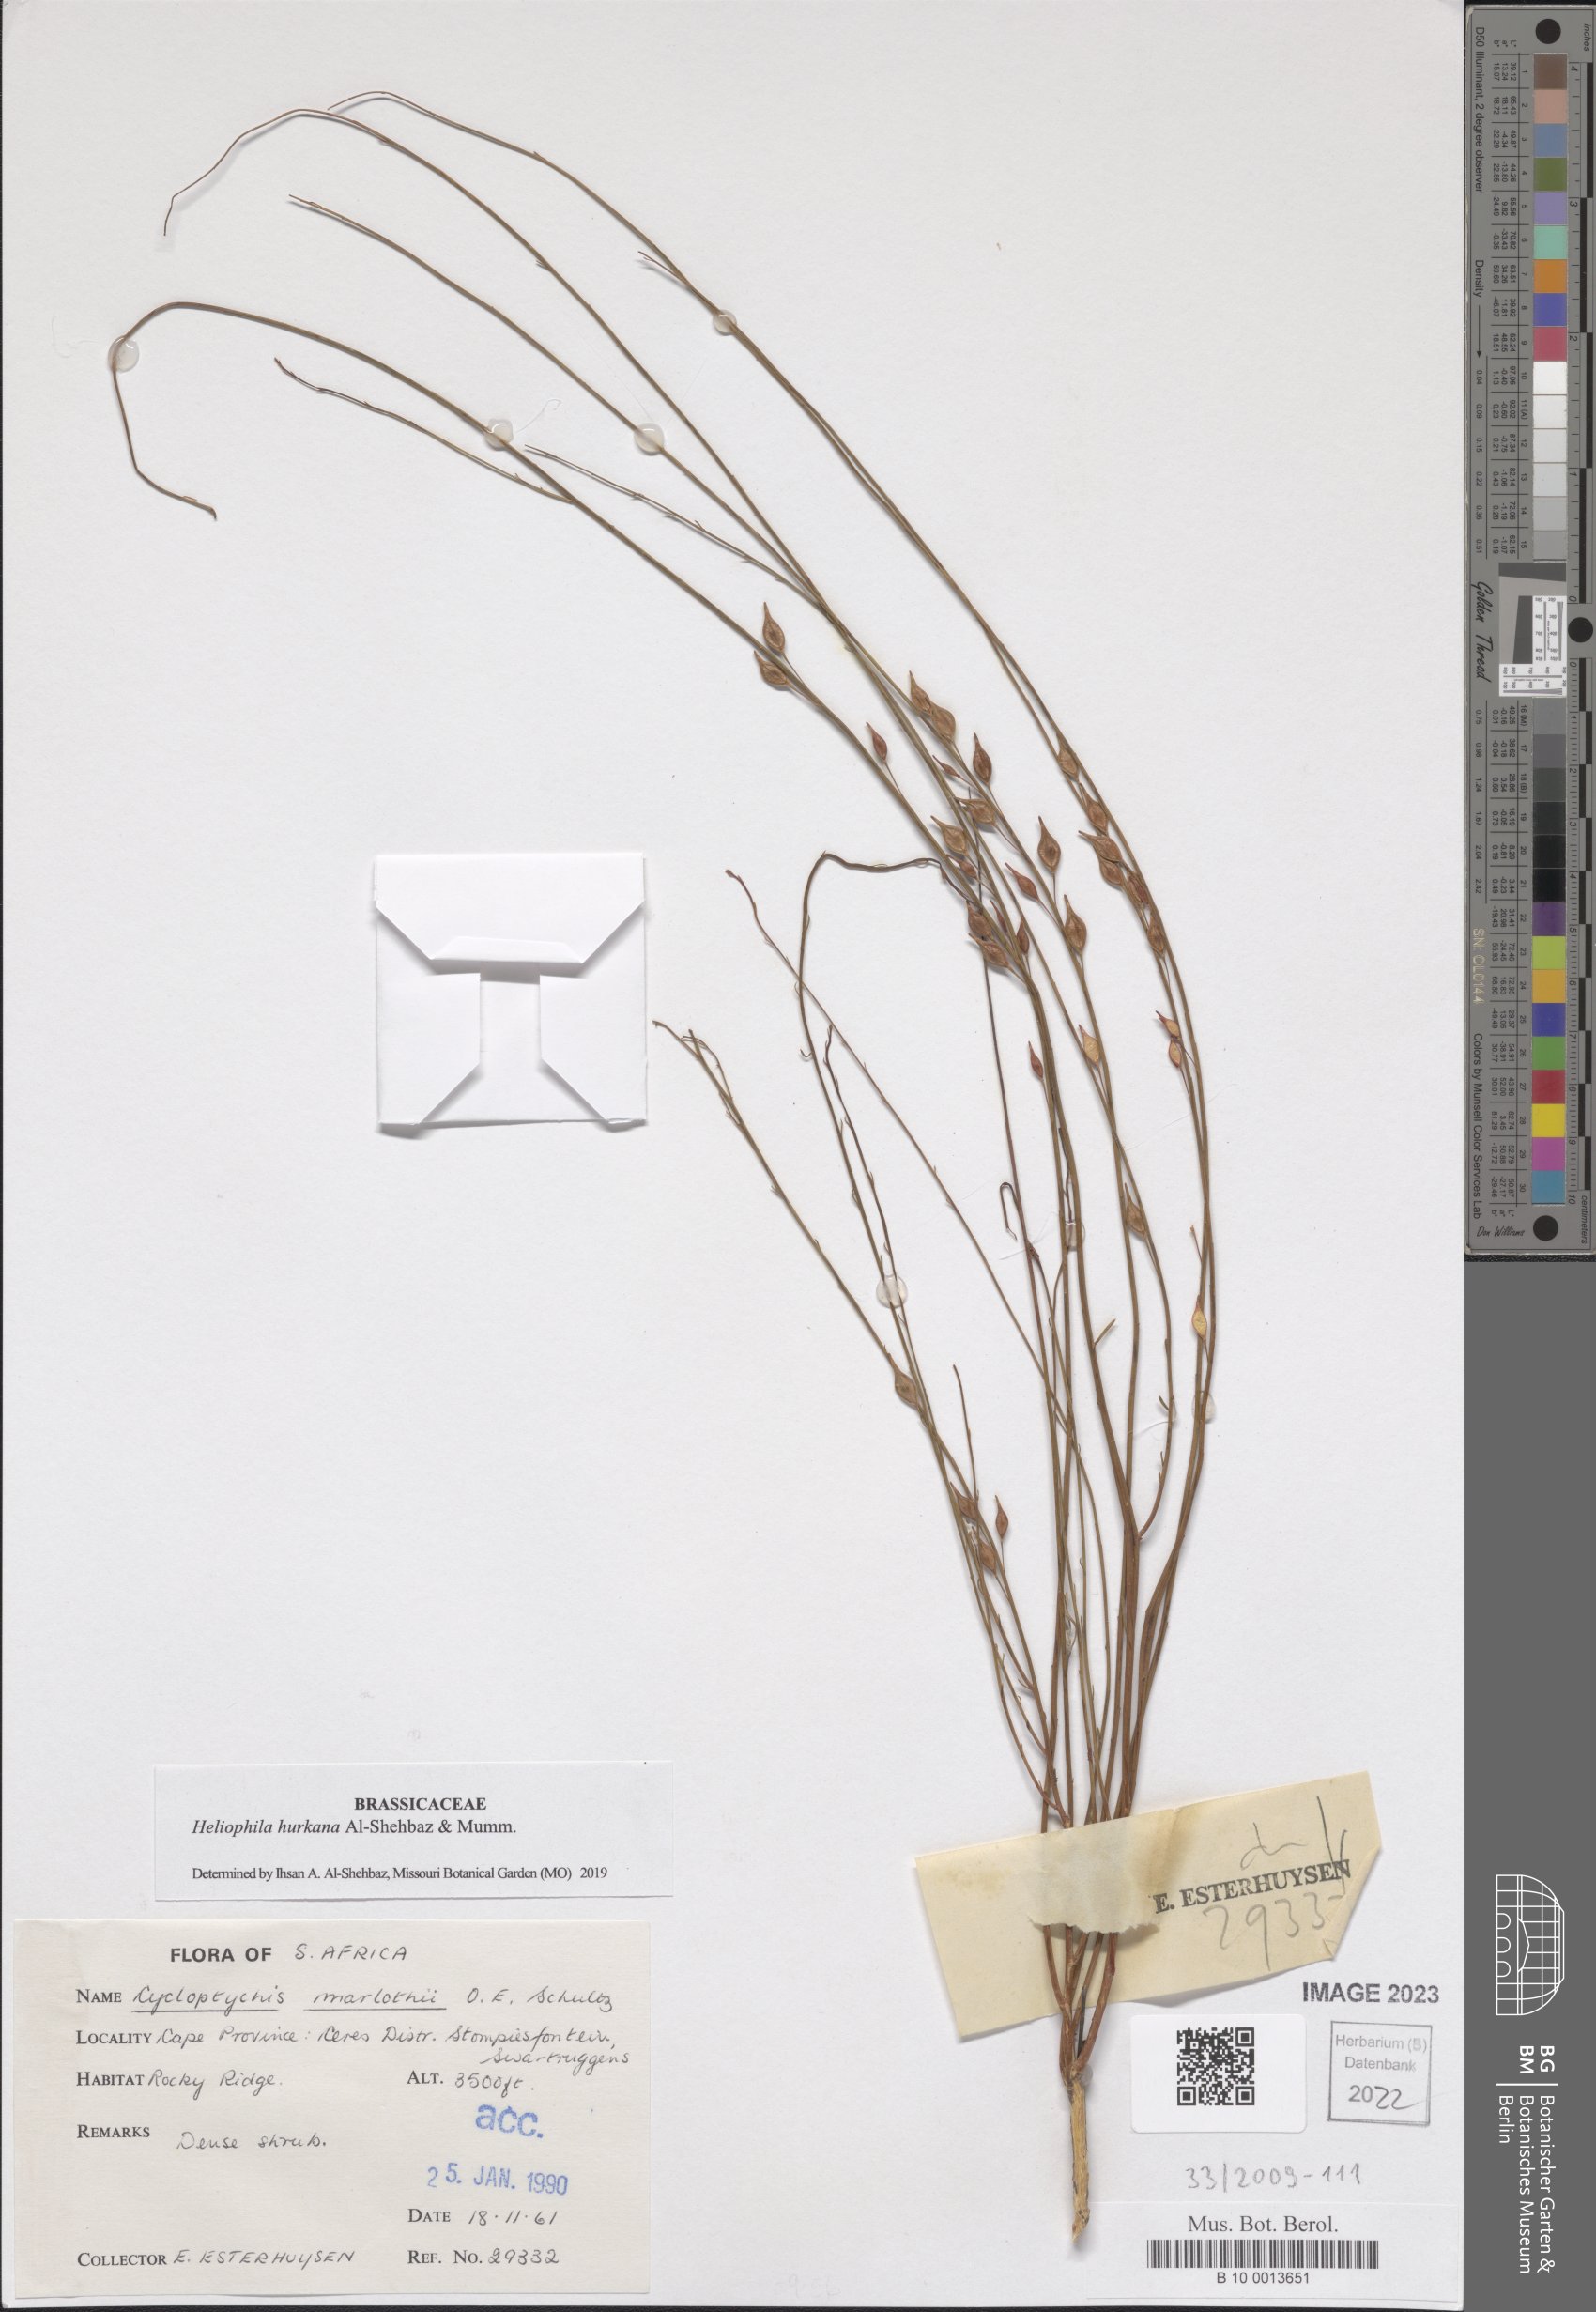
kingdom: Plantae
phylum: Tracheophyta
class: Magnoliopsida
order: Brassicales
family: Brassicaceae
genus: Heliophila
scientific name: Heliophila hurkana
